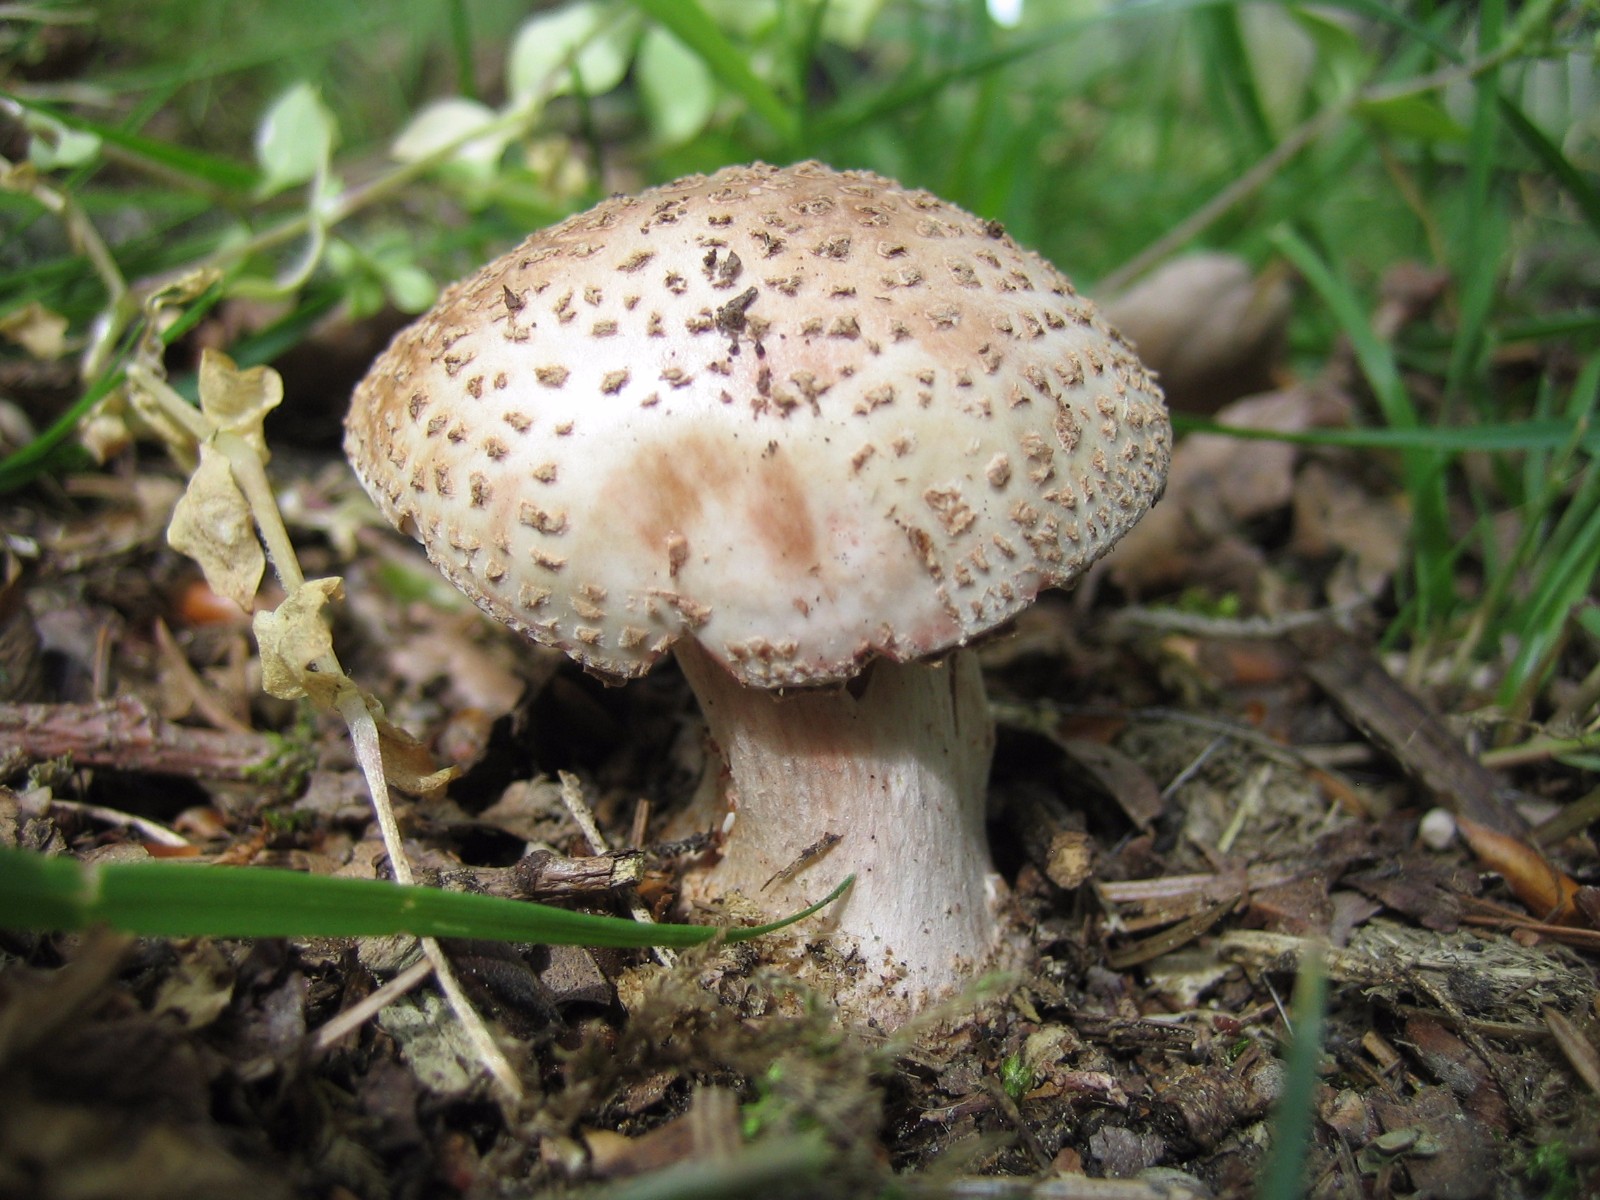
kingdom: Fungi
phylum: Basidiomycota
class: Agaricomycetes
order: Agaricales
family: Amanitaceae
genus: Amanita
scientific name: Amanita rubescens
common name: rødmende fluesvamp
